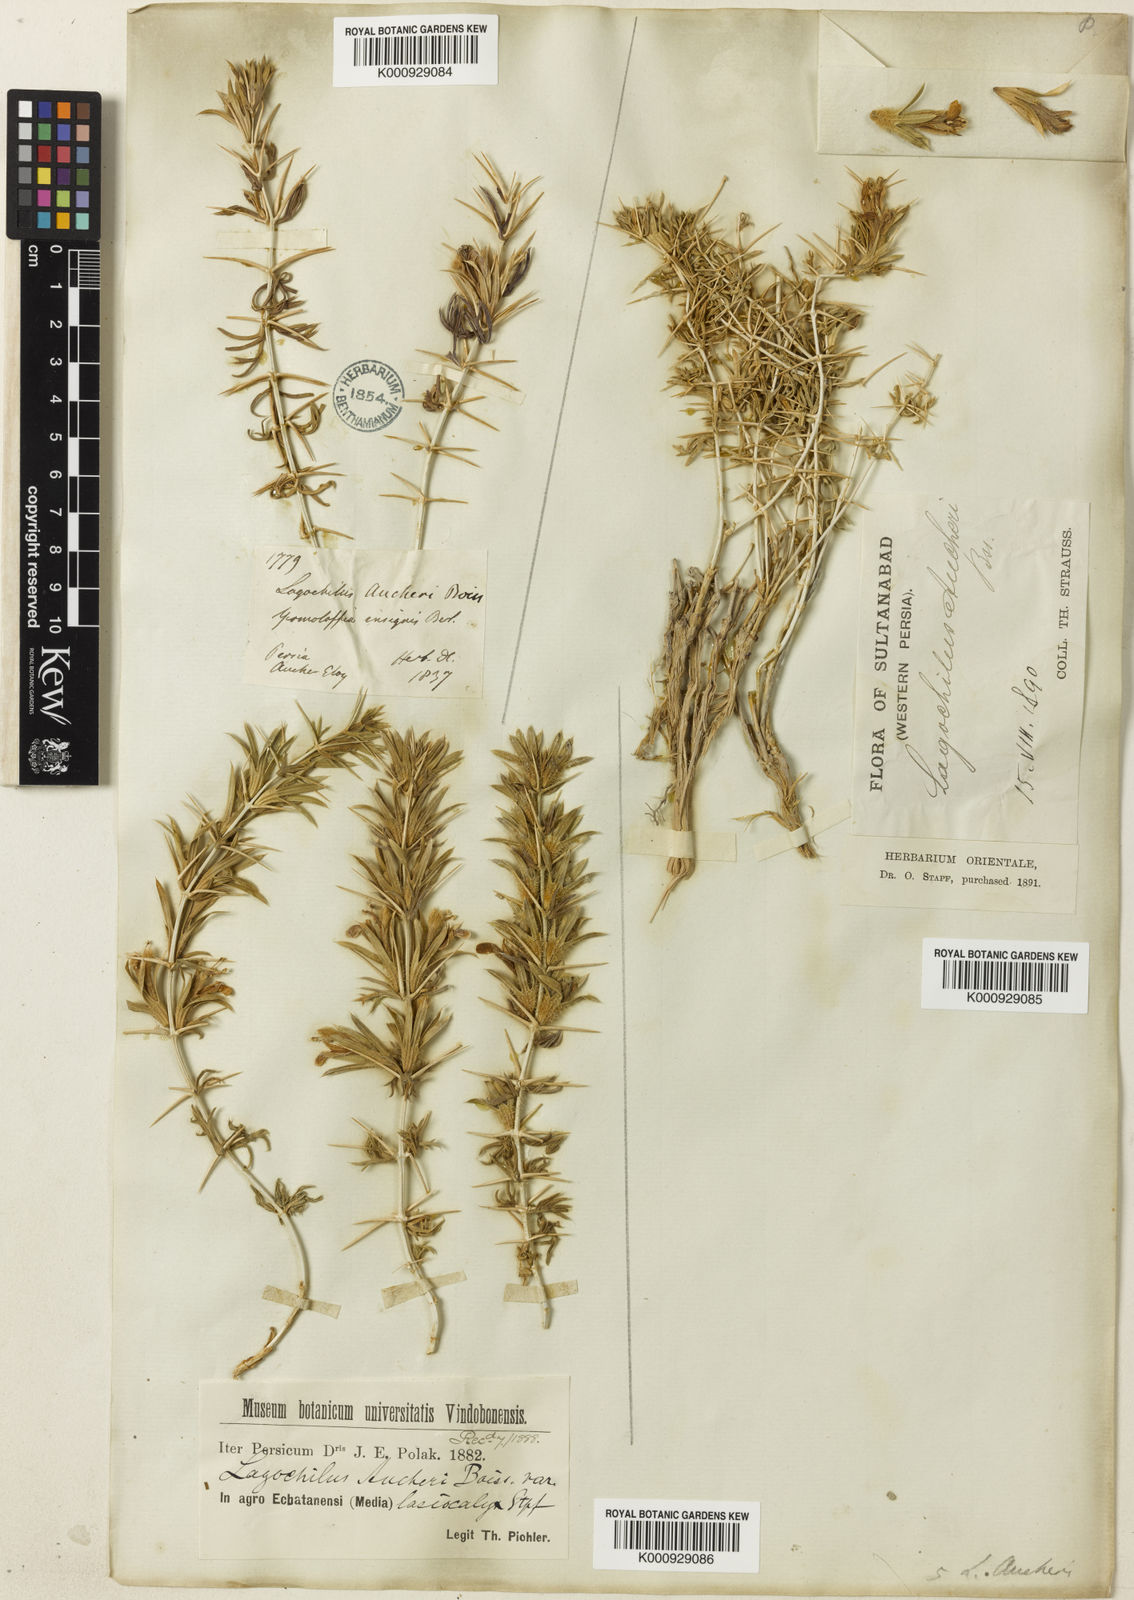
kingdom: Plantae
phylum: Tracheophyta
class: Magnoliopsida
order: Lamiales
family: Lamiaceae
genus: Lagochilus
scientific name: Lagochilus aucheri
